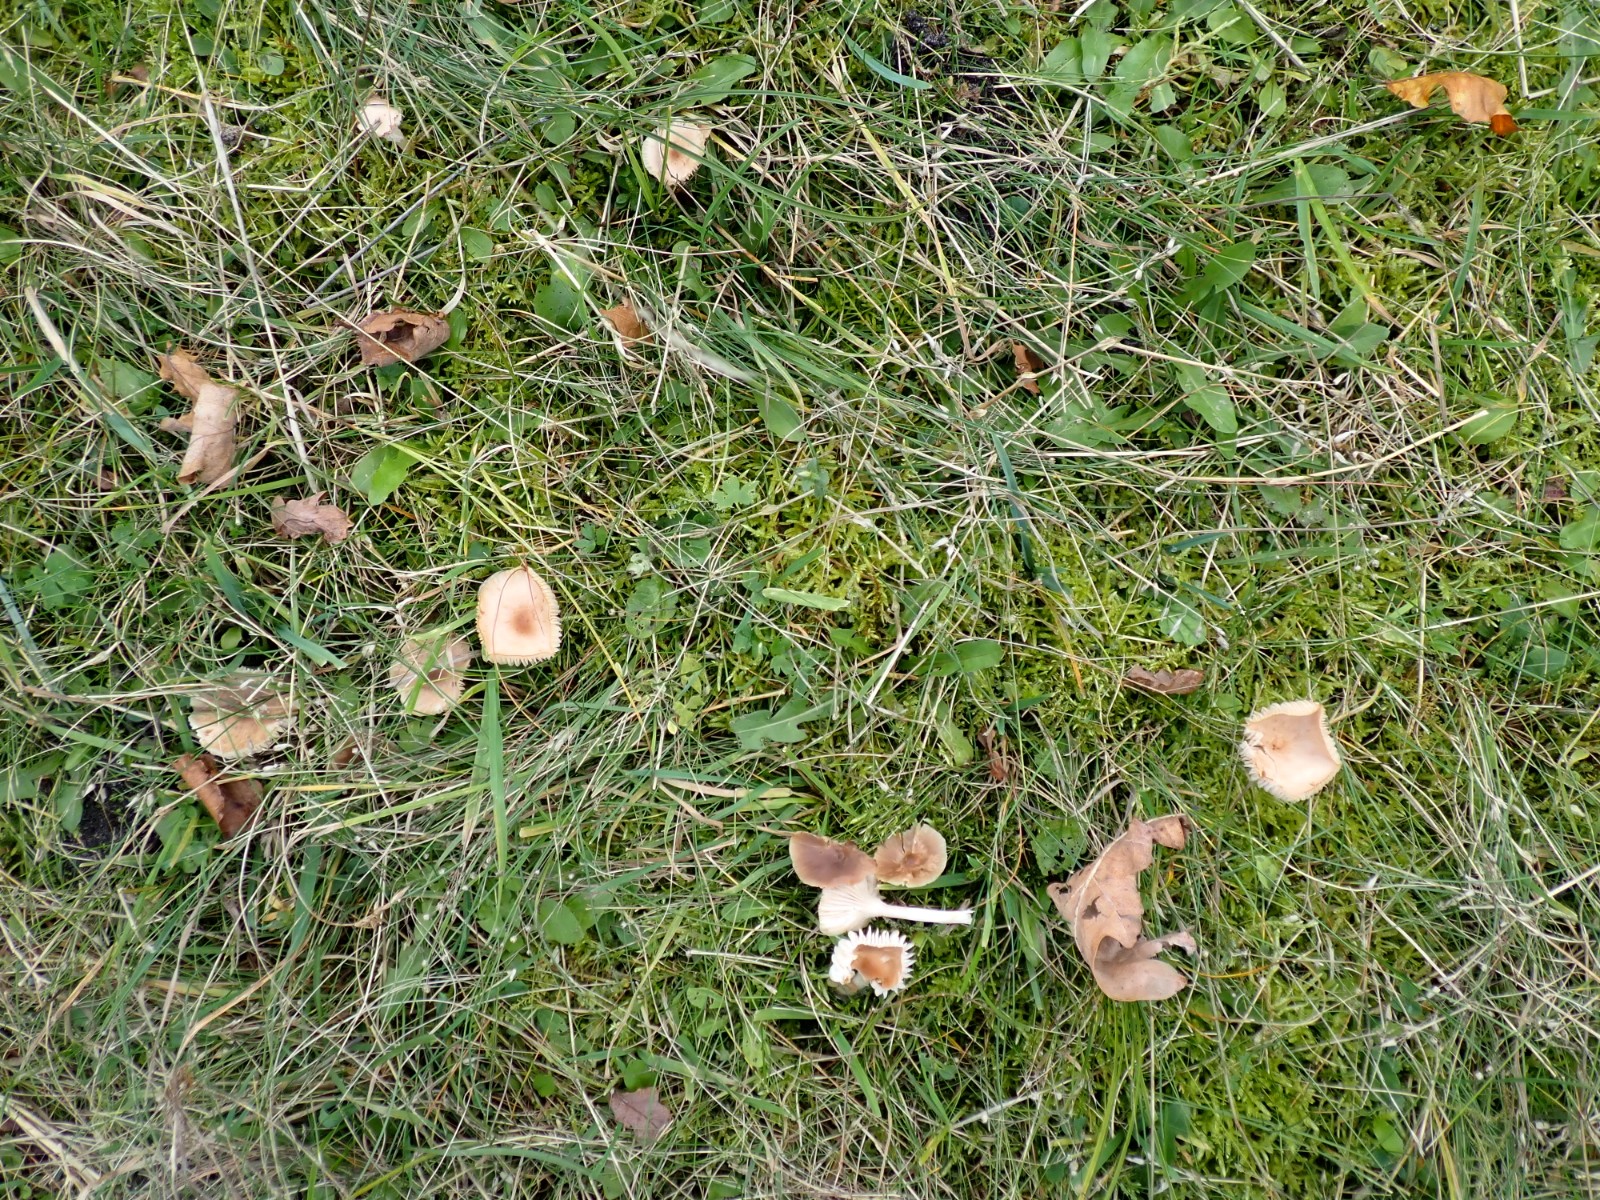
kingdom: Fungi
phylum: Basidiomycota
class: Agaricomycetes
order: Agaricales
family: Hygrophoraceae
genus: Cuphophyllus
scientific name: Cuphophyllus colemannianus
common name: rødbrun vokshat
